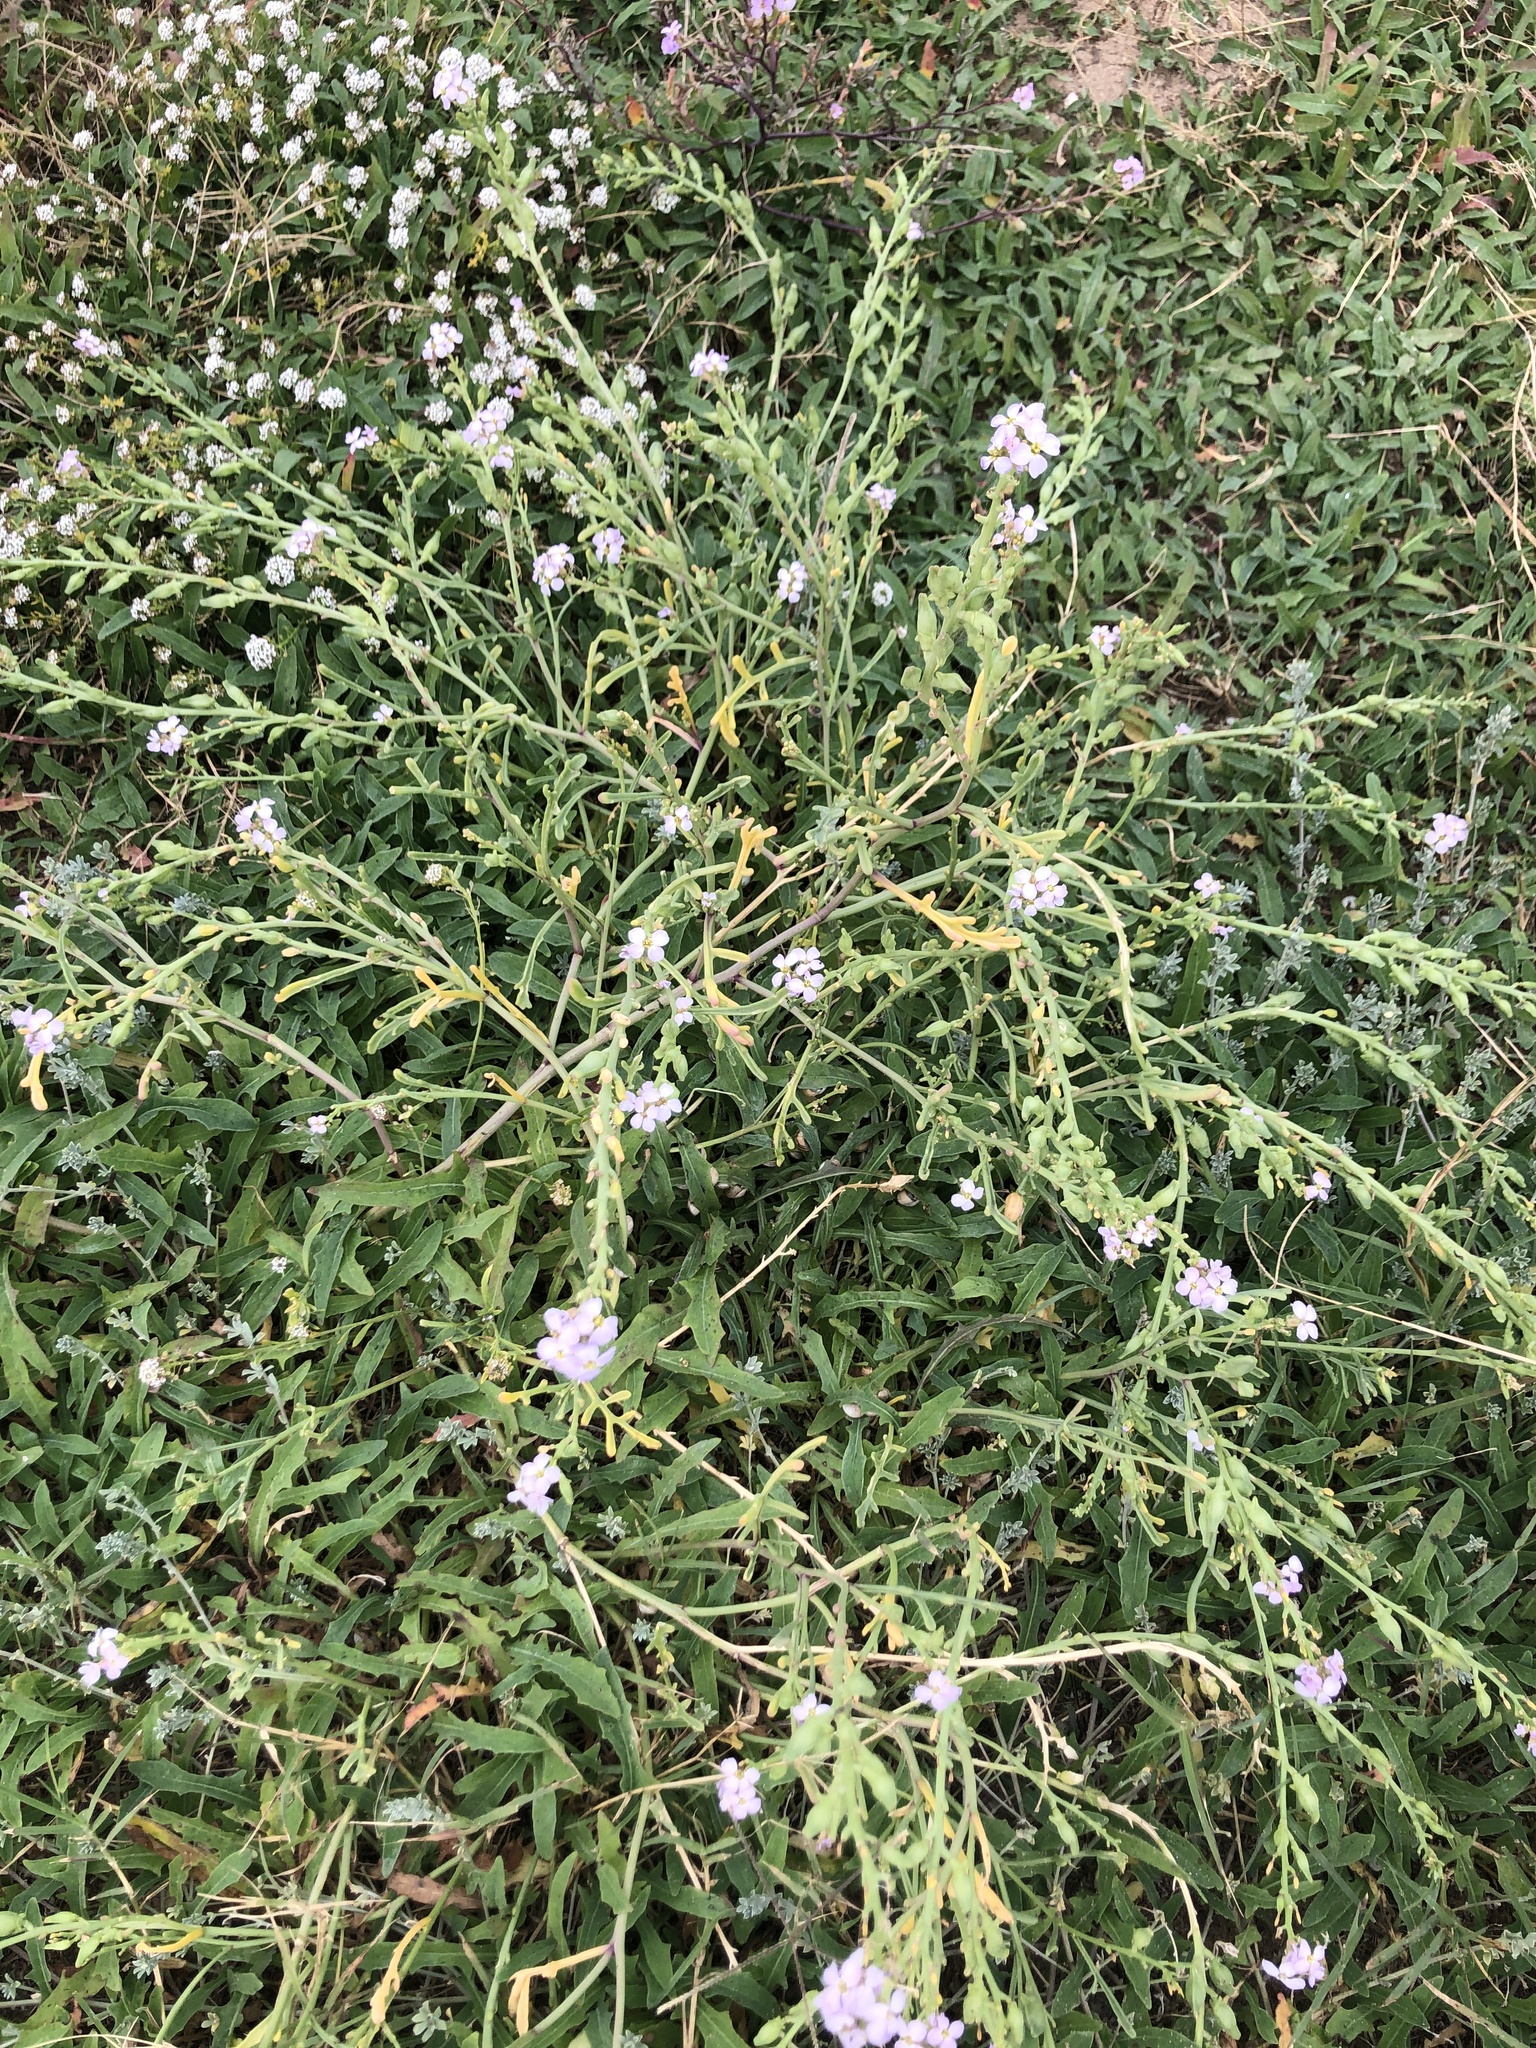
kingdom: Plantae
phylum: Tracheophyta
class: Magnoliopsida
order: Brassicales
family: Brassicaceae
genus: Cakile
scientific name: Cakile maritima
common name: Sea rocket
